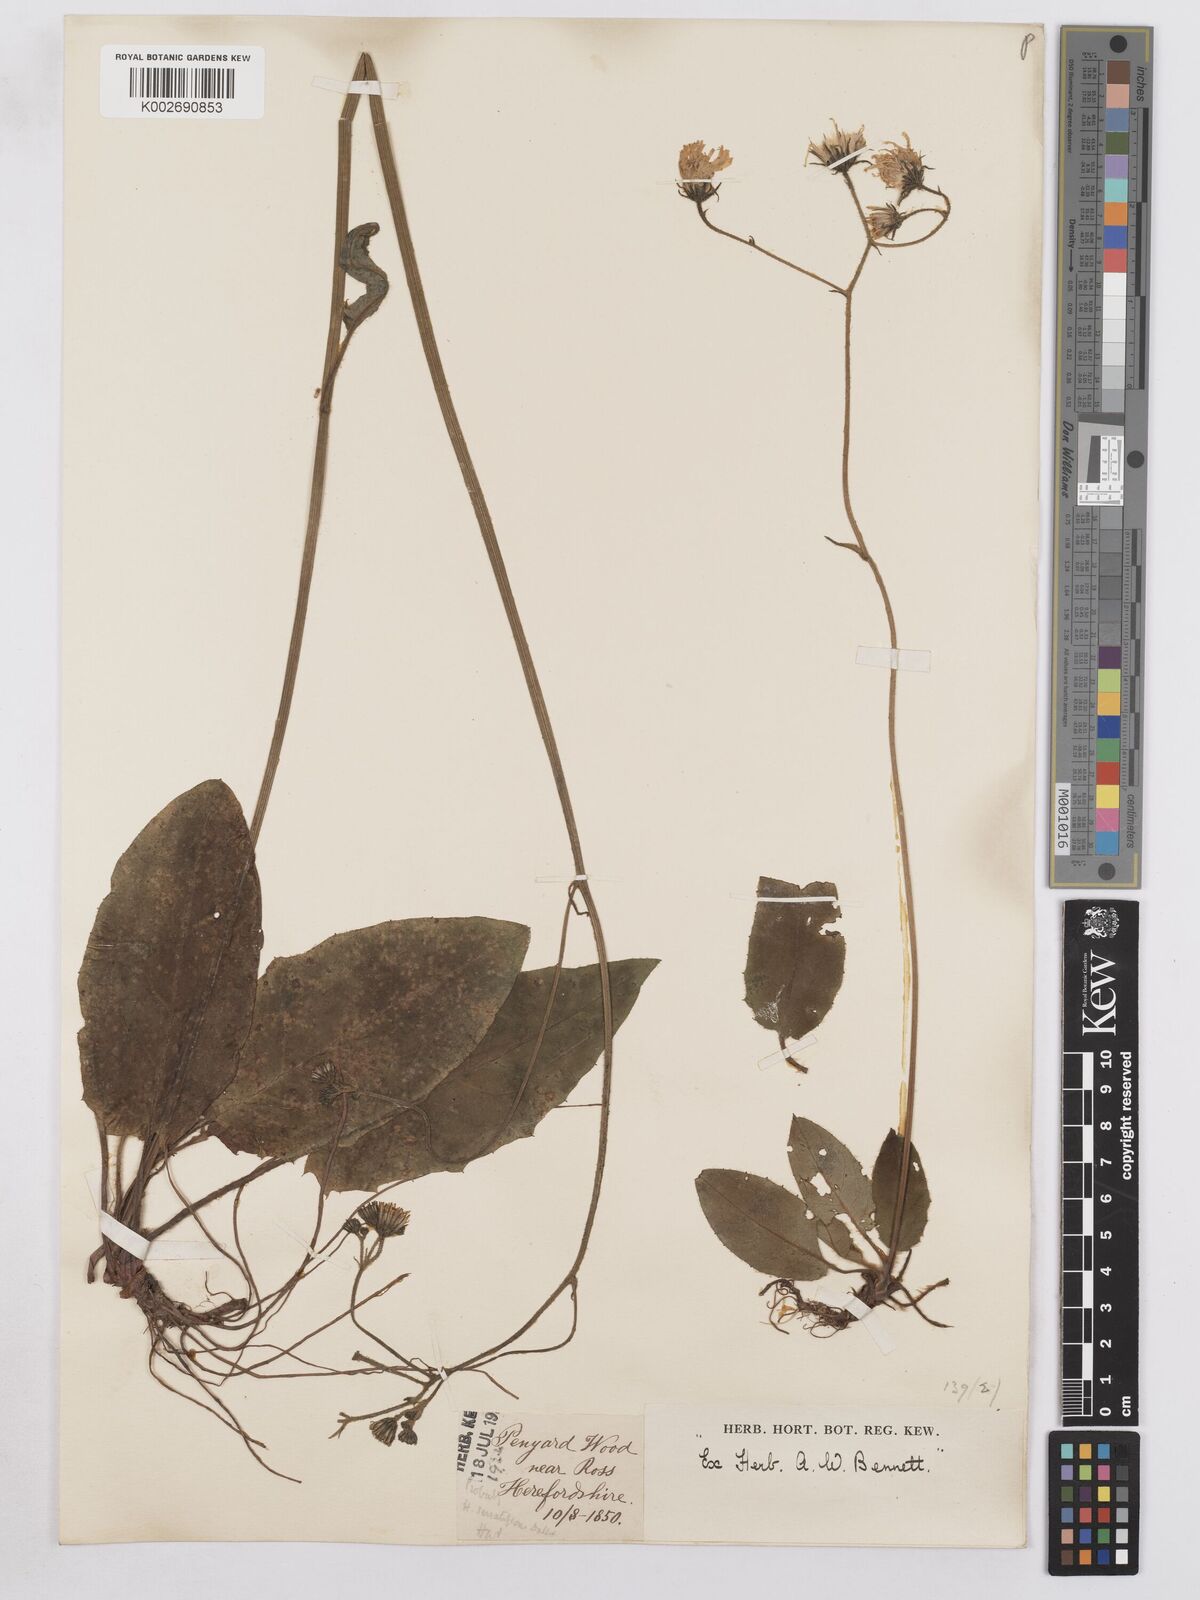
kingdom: Plantae
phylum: Tracheophyta
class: Magnoliopsida
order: Asterales
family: Asteraceae
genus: Hieracium
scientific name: Hieracium murorum
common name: Wall hawkweed
